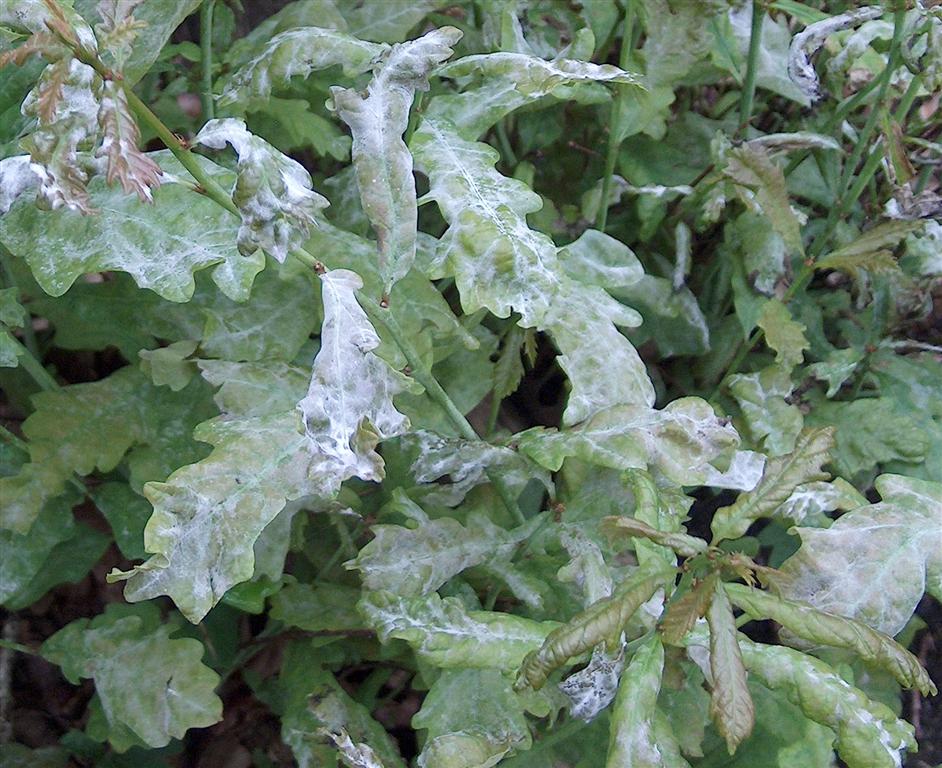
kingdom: Fungi
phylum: Ascomycota
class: Leotiomycetes
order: Helotiales
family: Erysiphaceae
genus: Erysiphe
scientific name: Erysiphe alphitoides
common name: ege-meldug
